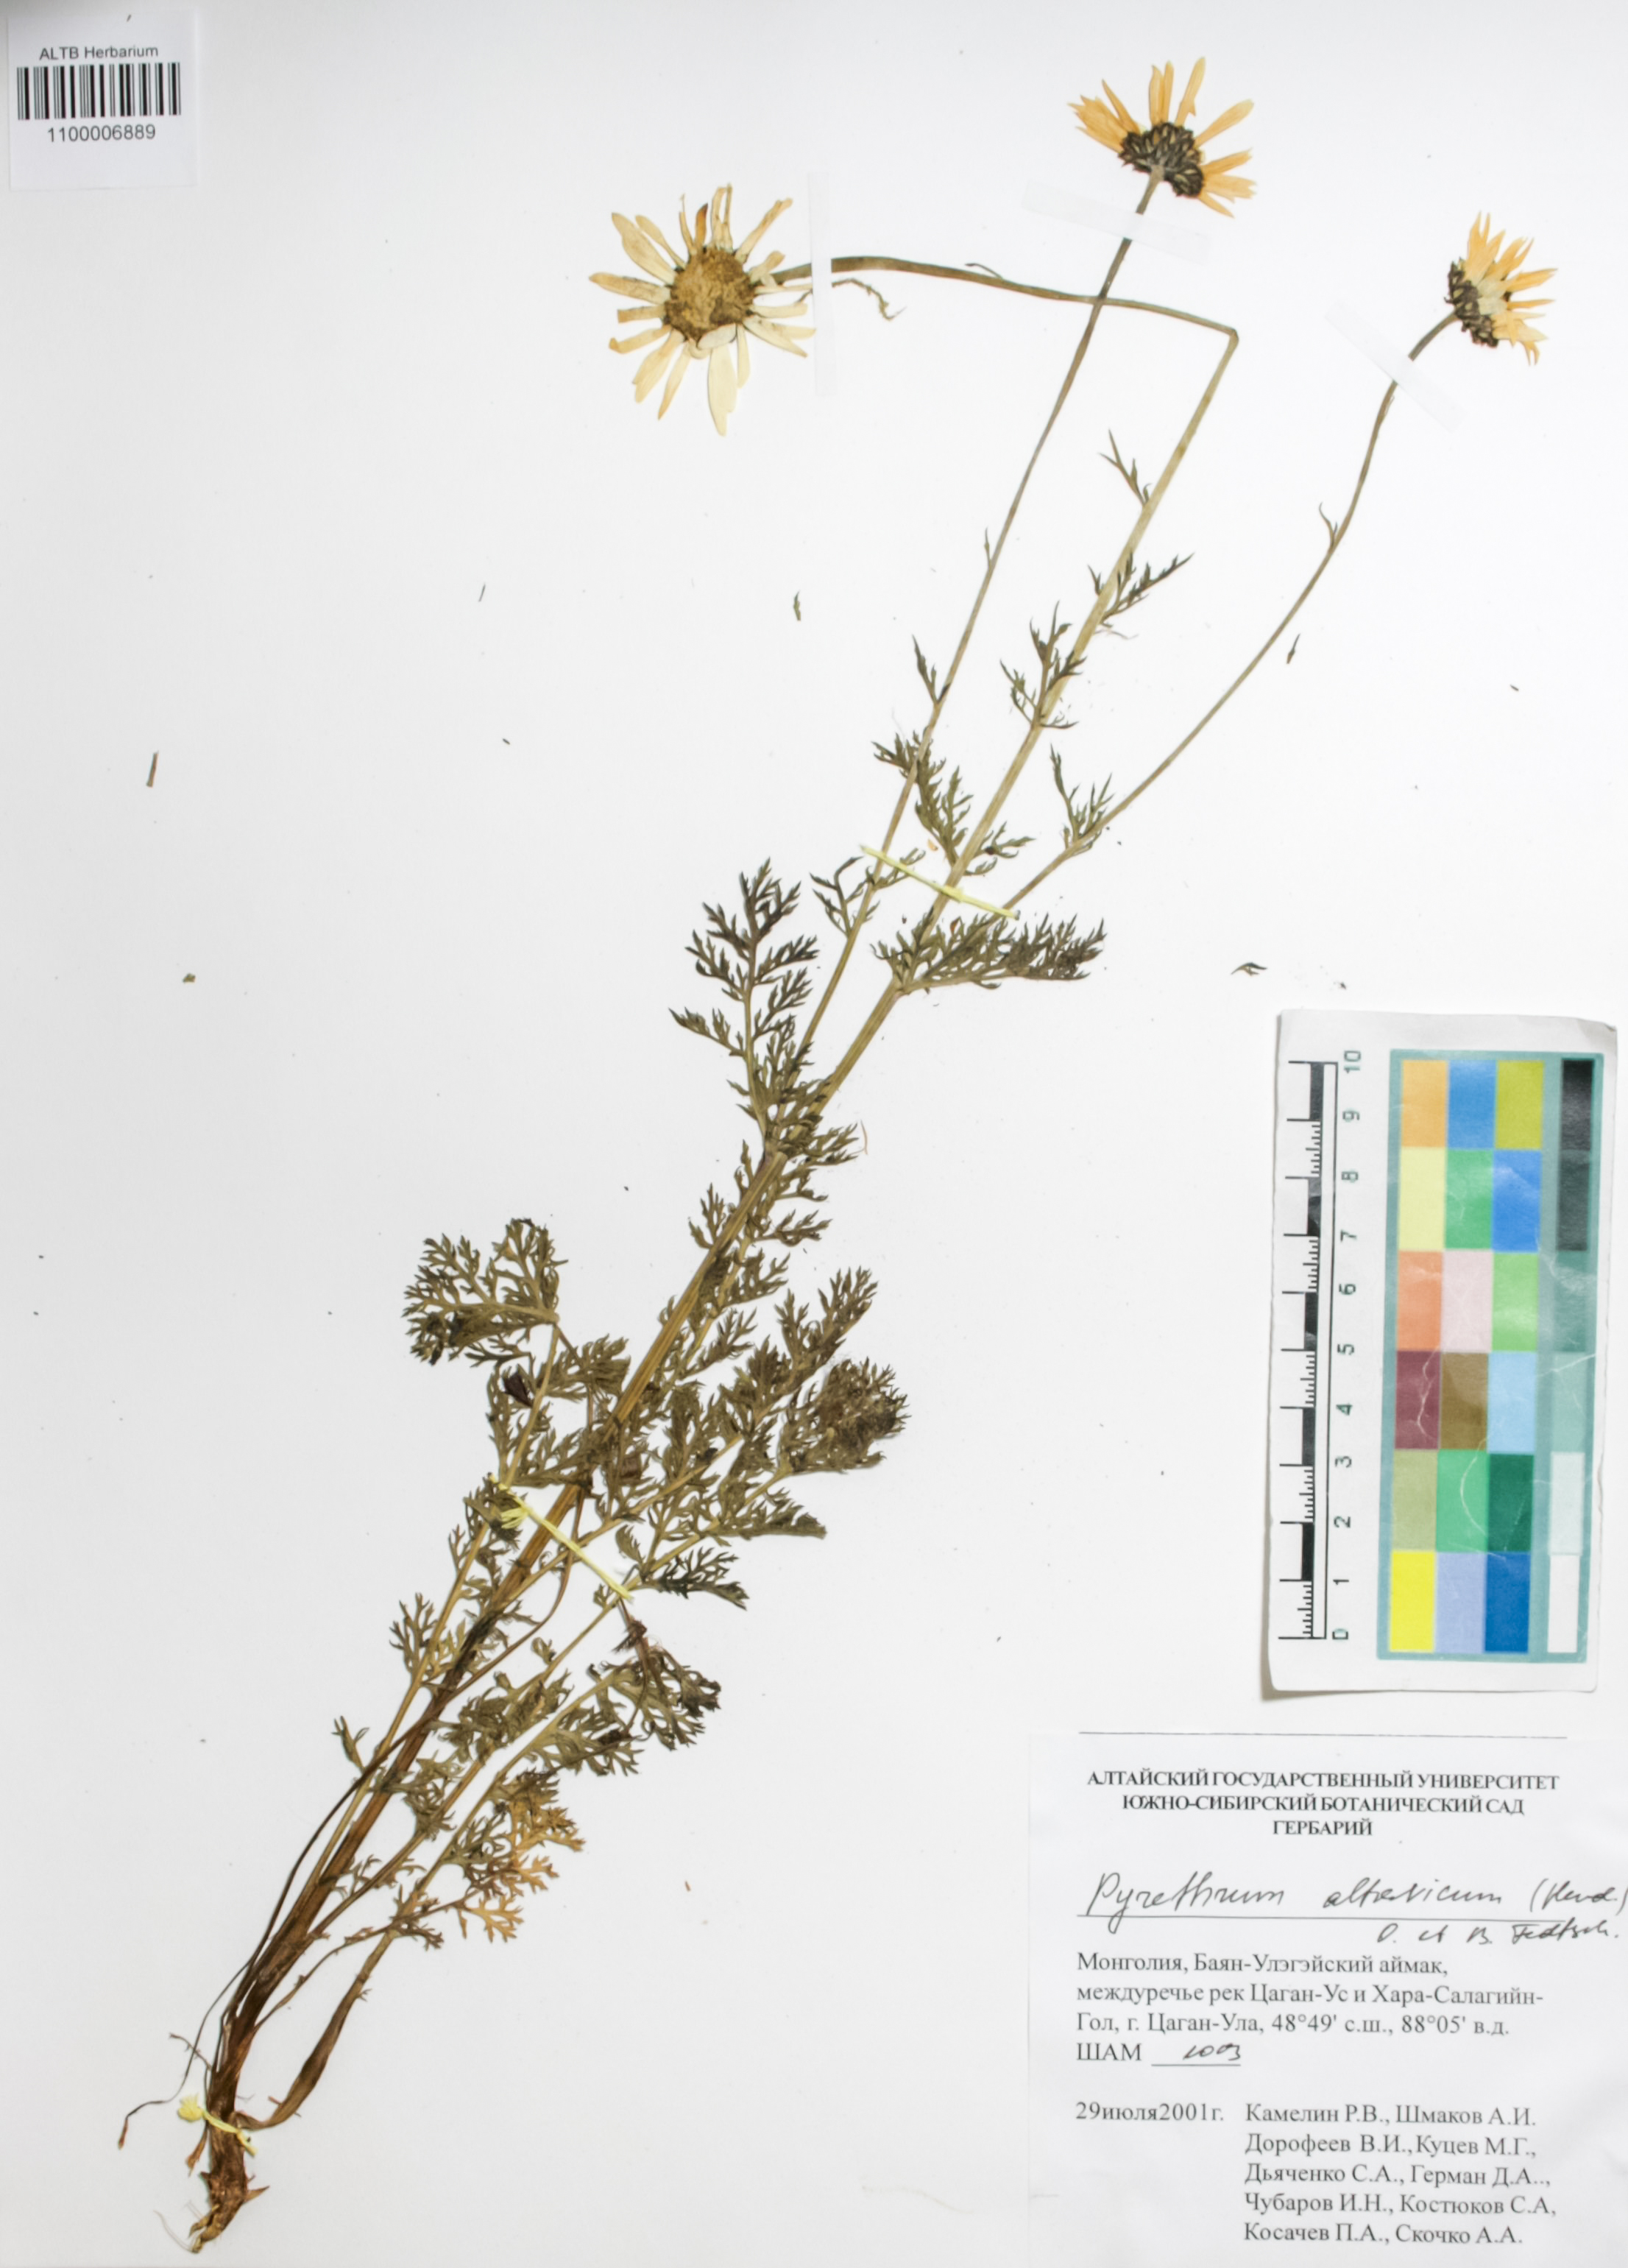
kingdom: Plantae
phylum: Tracheophyta
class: Magnoliopsida
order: Asterales
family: Asteraceae
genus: Tanacetum
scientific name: Tanacetum alatavicum
